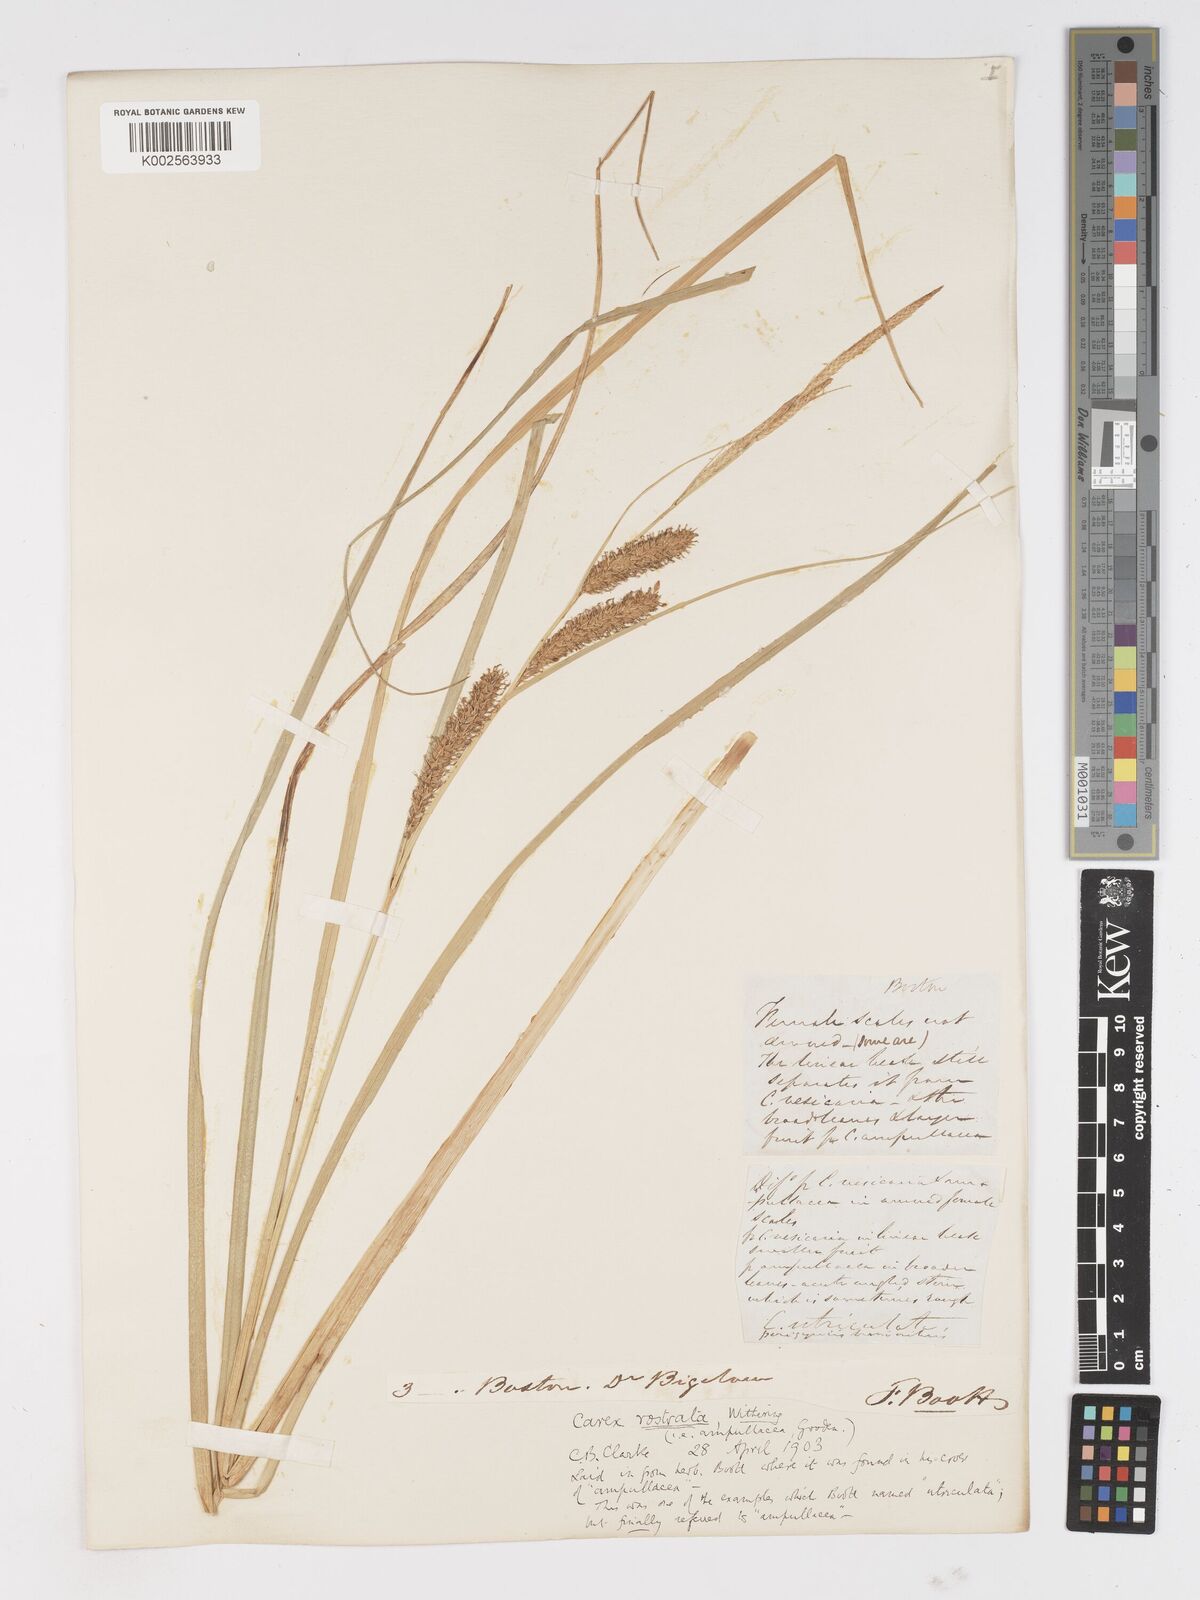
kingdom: Plantae
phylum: Tracheophyta
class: Liliopsida
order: Poales
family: Cyperaceae
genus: Carex
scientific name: Carex rostrata
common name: Bottle sedge
